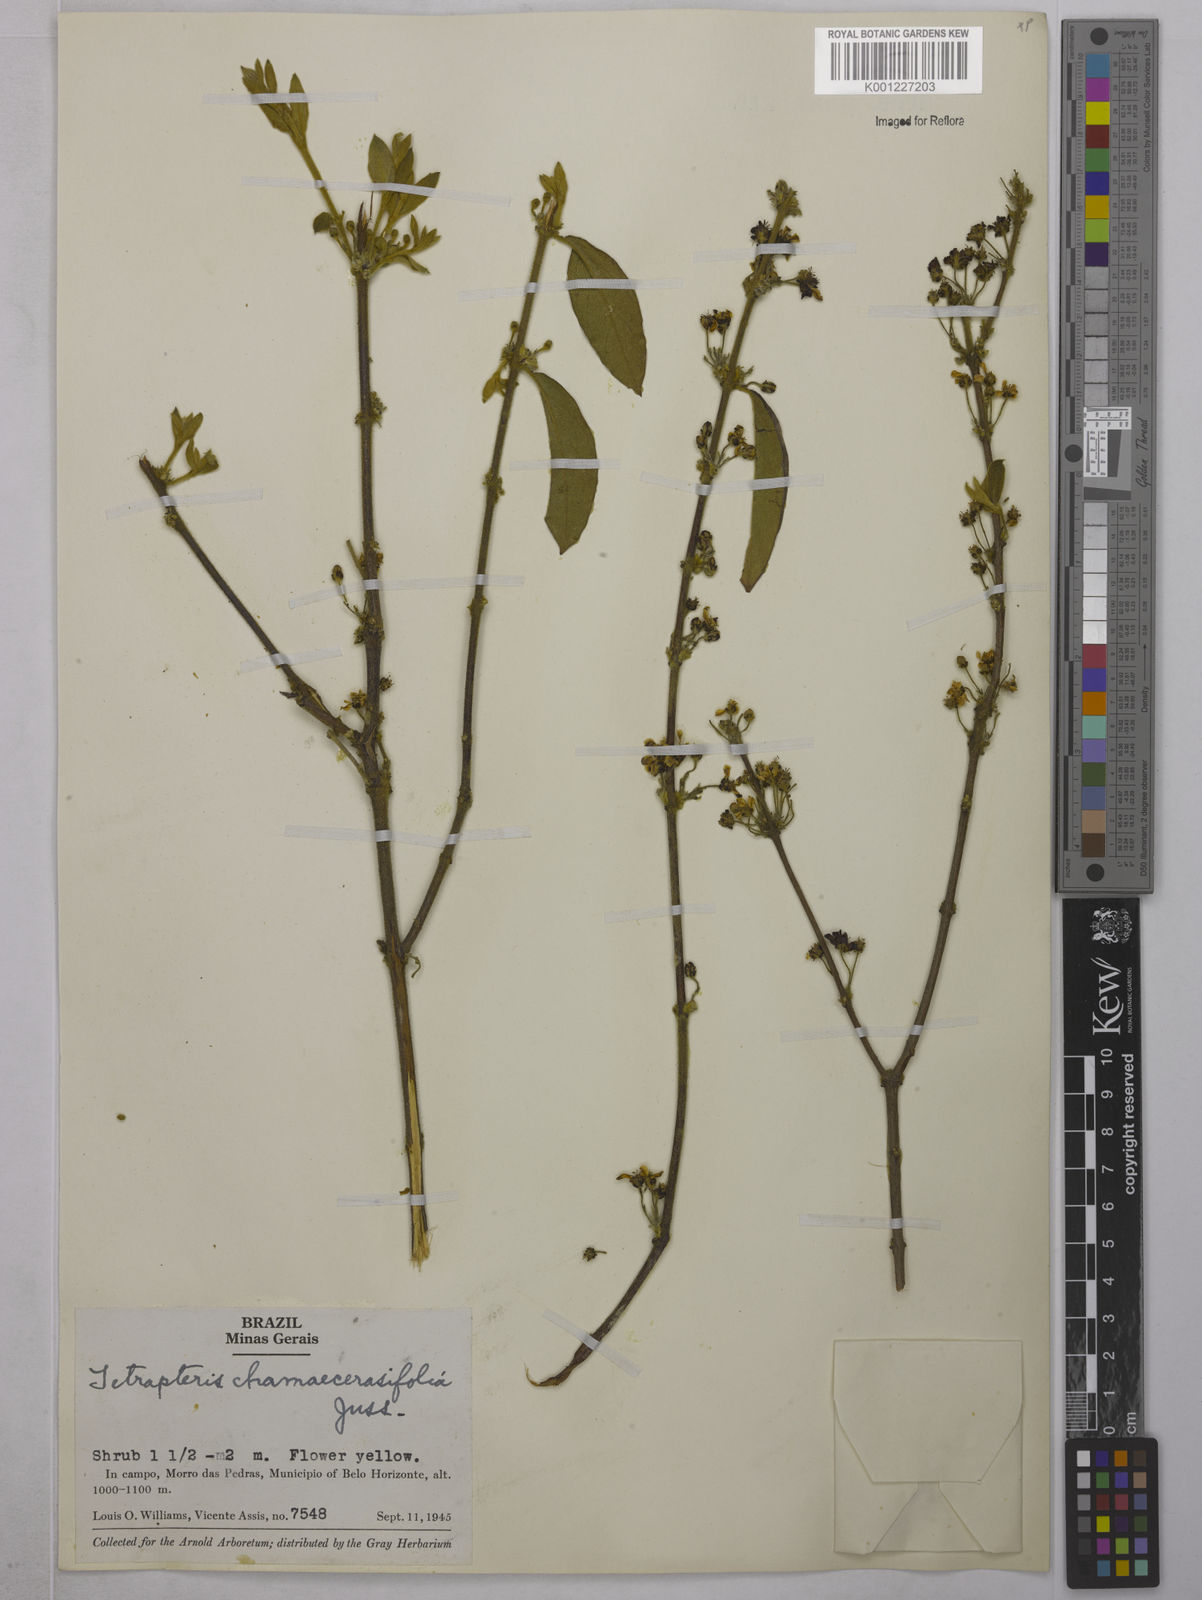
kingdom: Plantae
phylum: Tracheophyta
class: Magnoliopsida
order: Malpighiales
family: Malpighiaceae
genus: Glicophyllum
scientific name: Glicophyllum chamaecerasifolium
